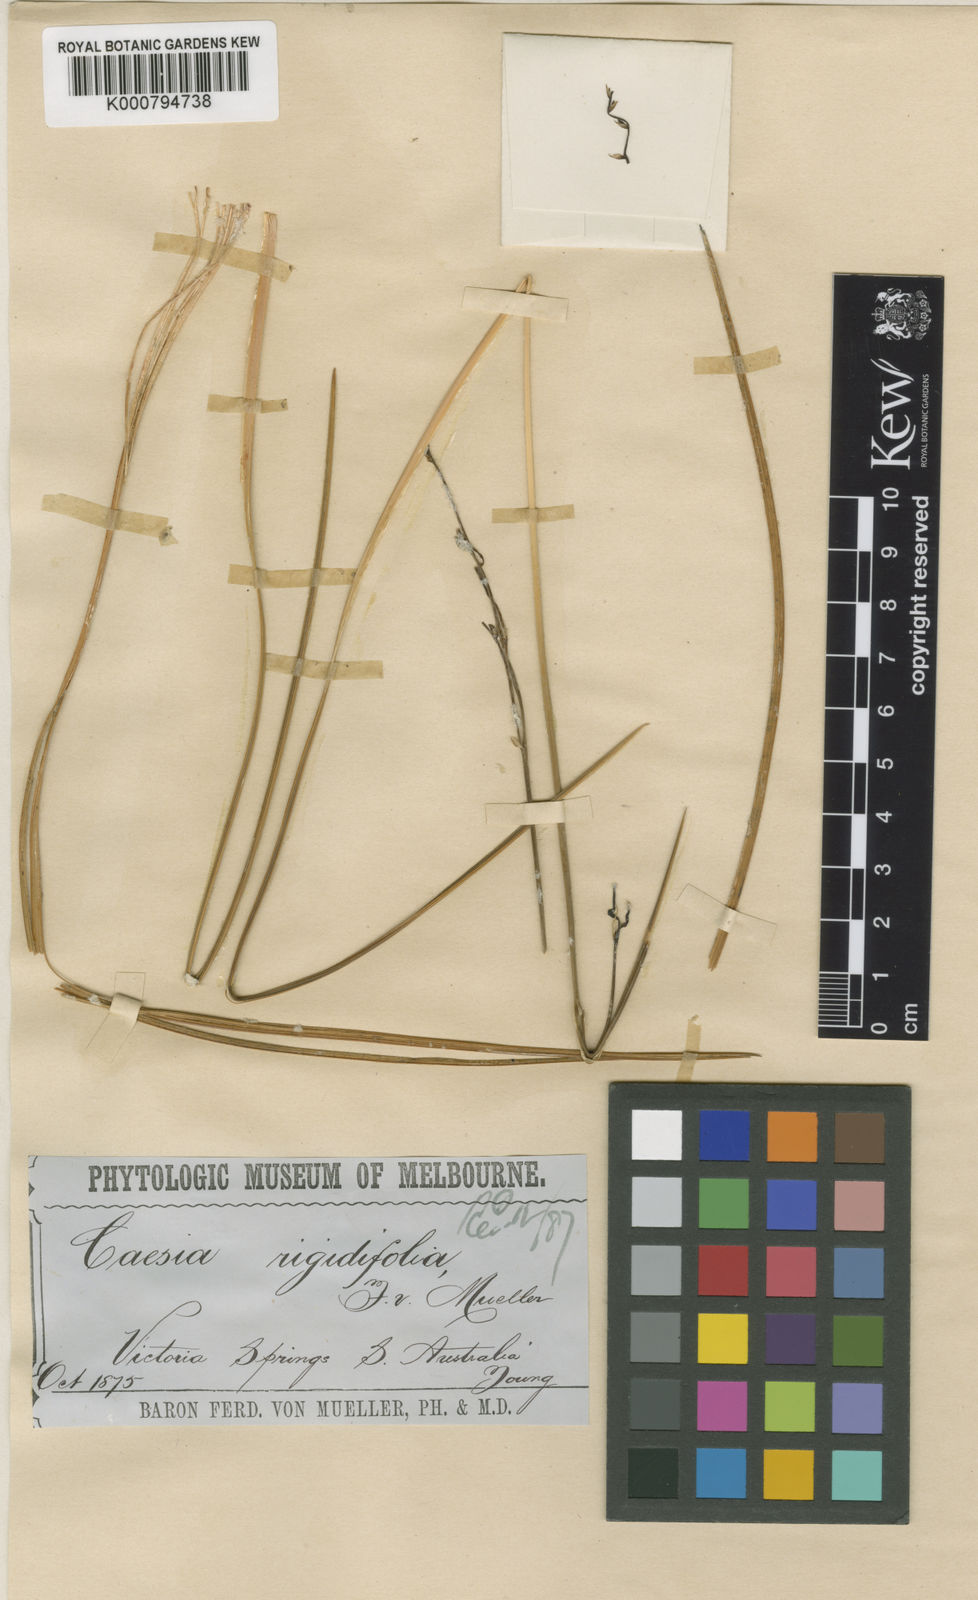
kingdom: Plantae
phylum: Tracheophyta
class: Liliopsida
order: Asparagales
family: Asphodelaceae
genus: Caesia
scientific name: Caesia rigidifolia
